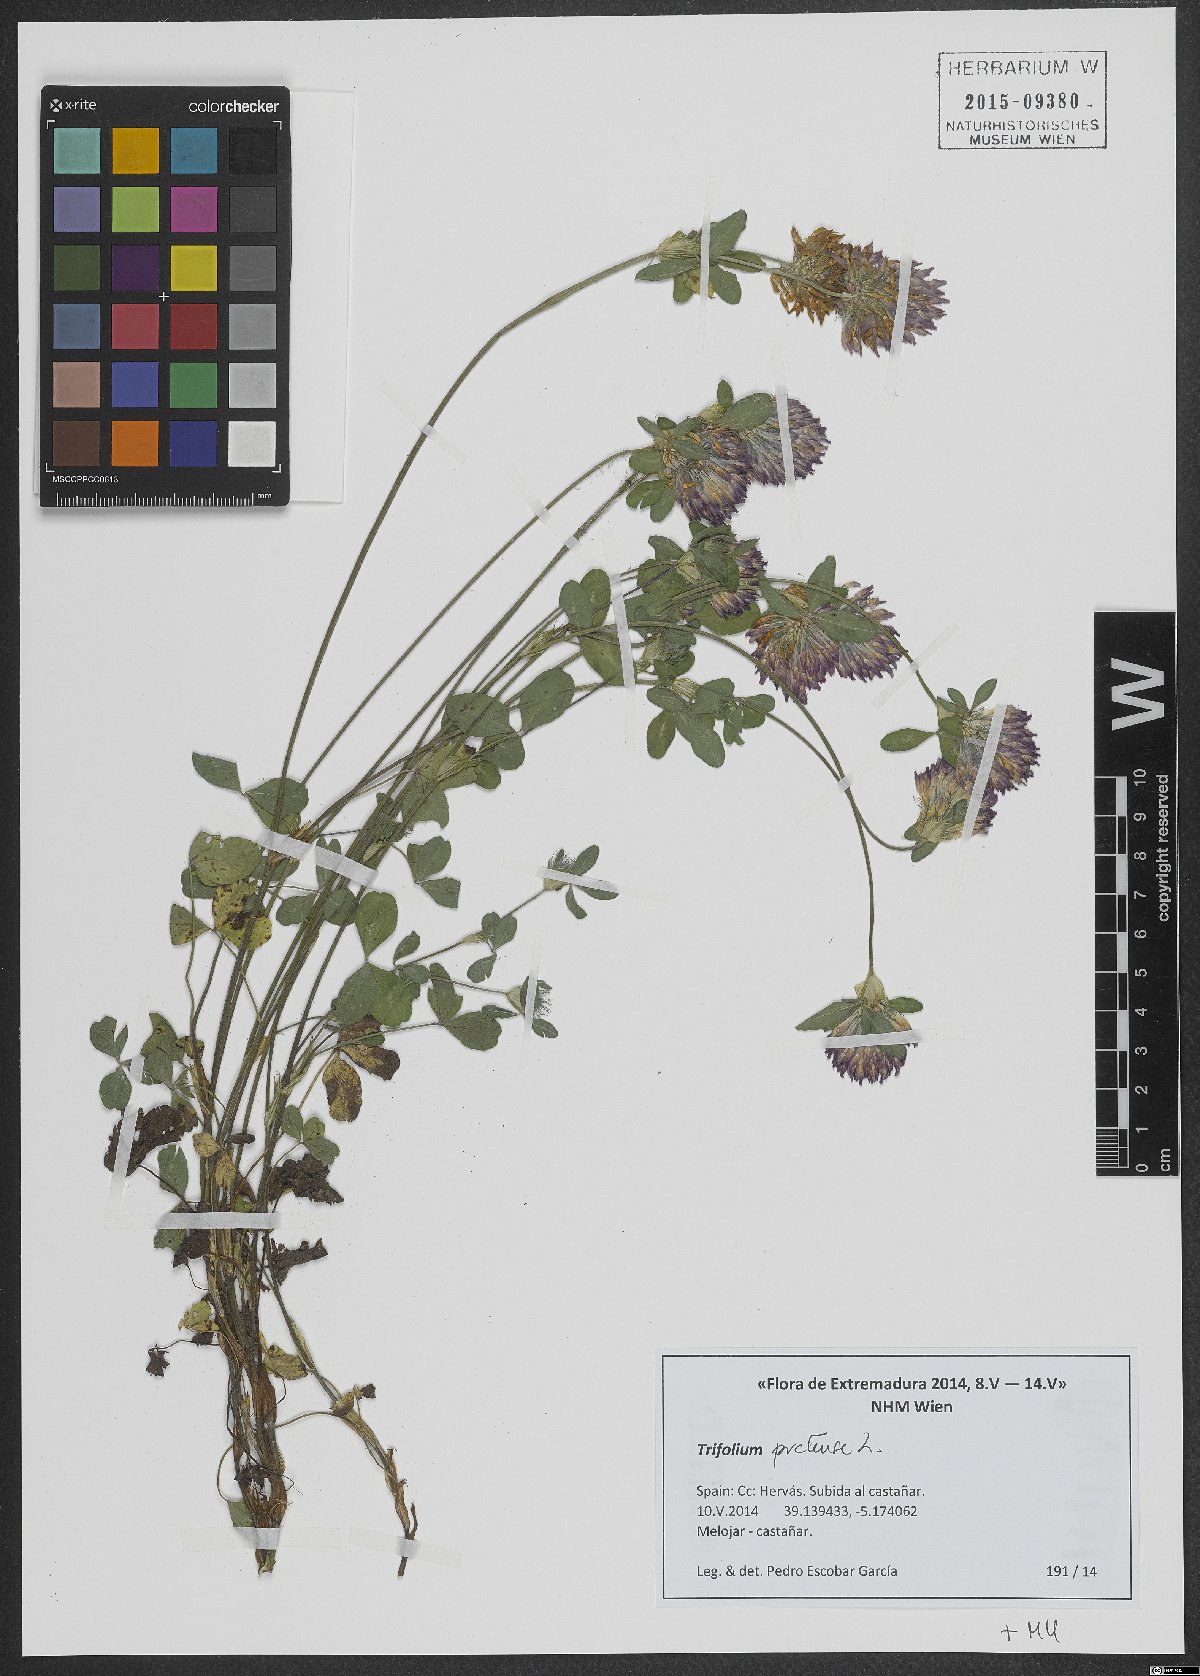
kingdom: Plantae
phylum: Tracheophyta
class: Magnoliopsida
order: Fabales
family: Fabaceae
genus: Trifolium
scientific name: Trifolium pratense
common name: Red clover
